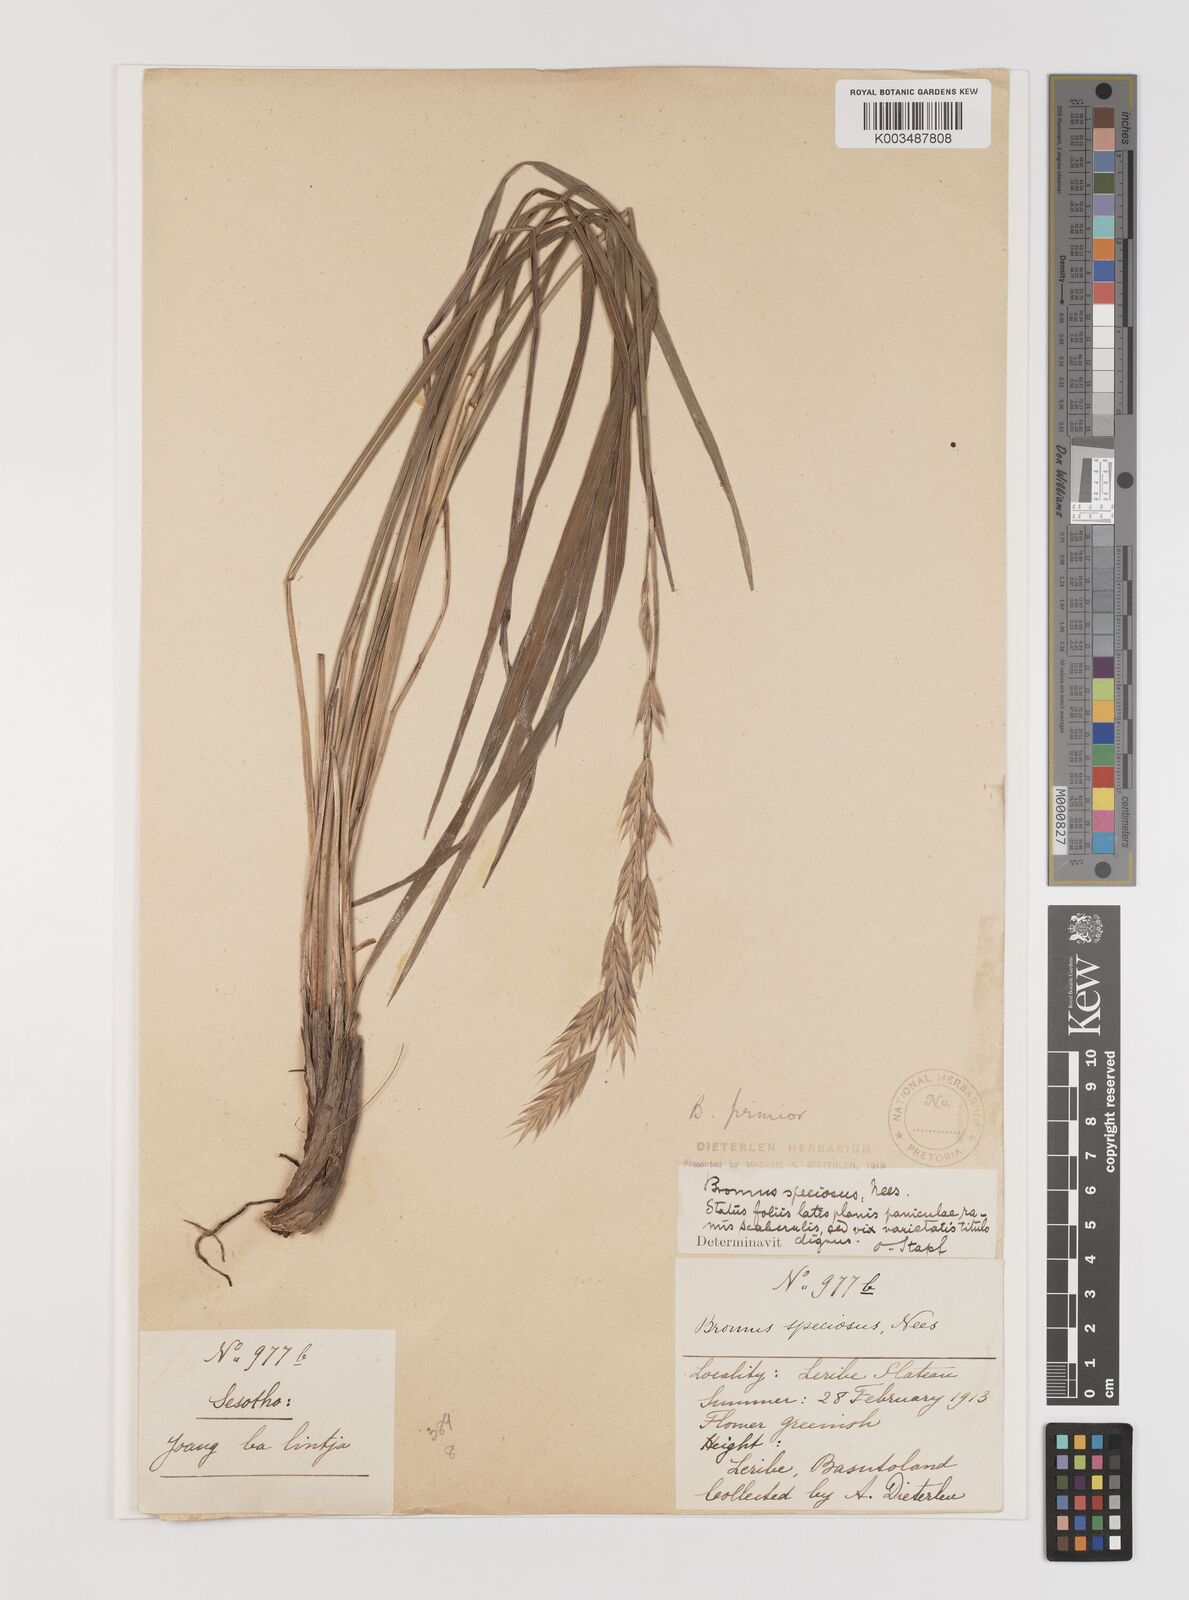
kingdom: Plantae
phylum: Tracheophyta
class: Liliopsida
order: Poales
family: Poaceae
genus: Bromus
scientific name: Bromus speciosus
